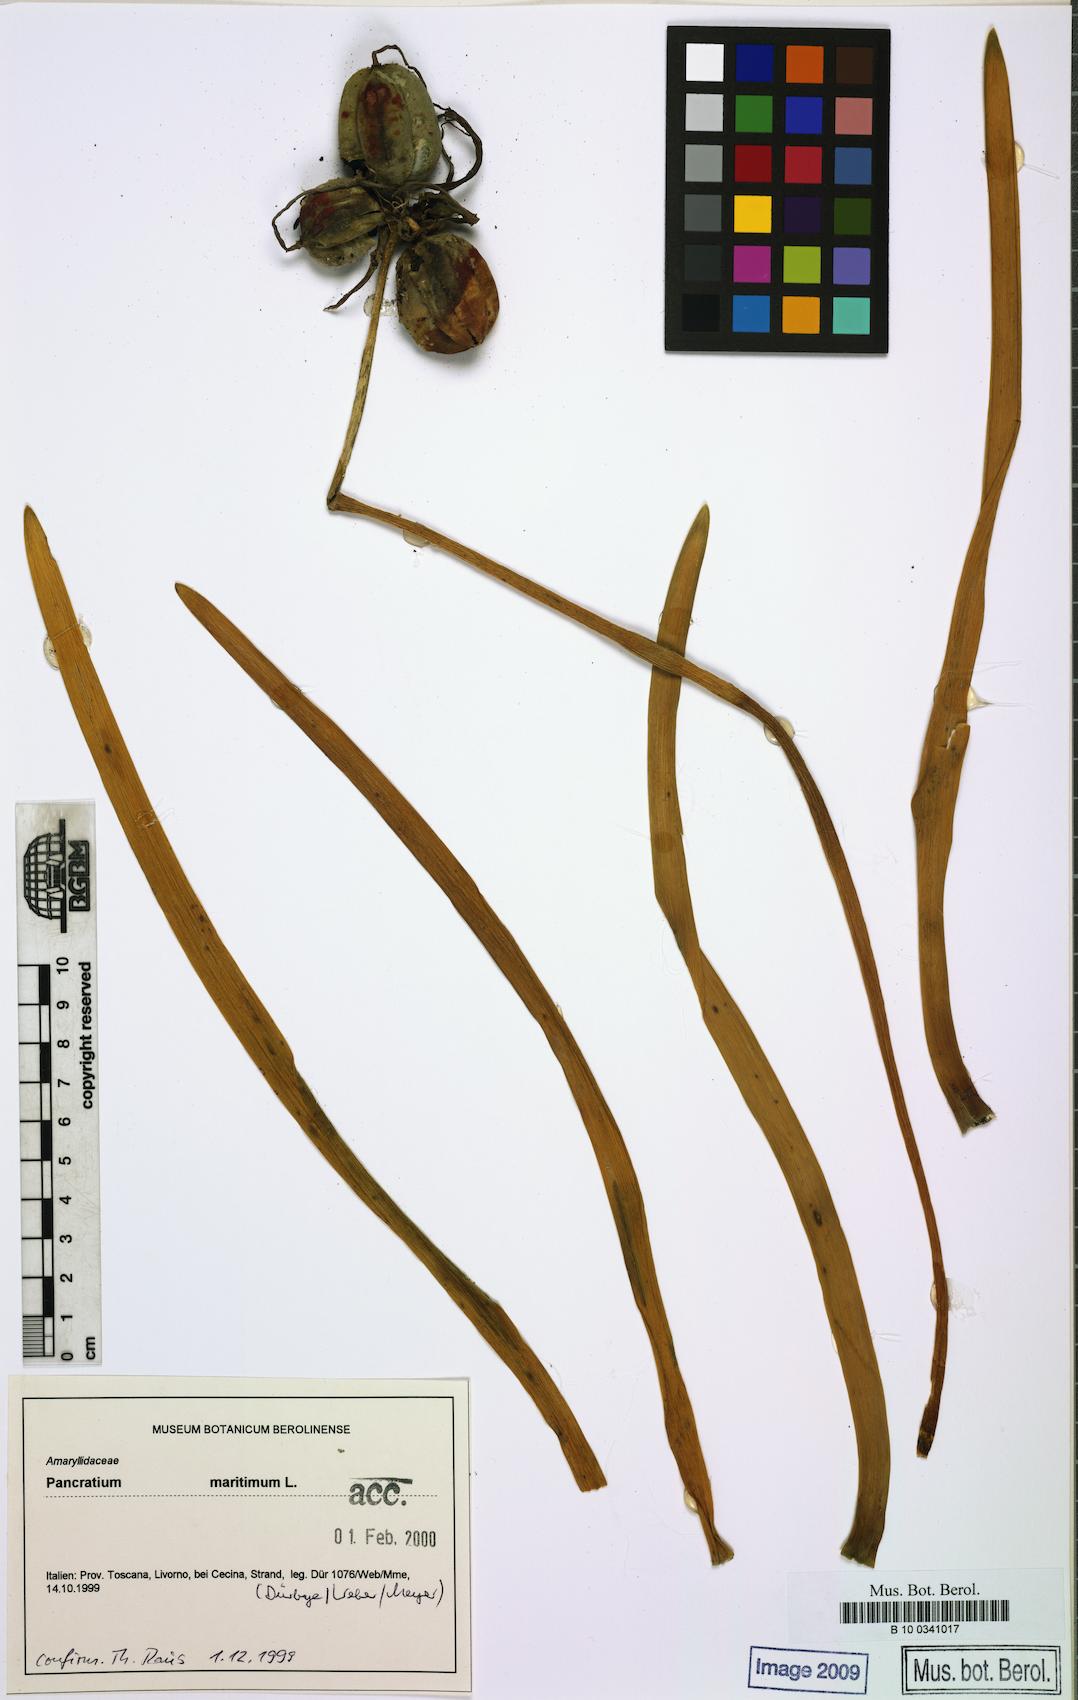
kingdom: Plantae
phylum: Tracheophyta
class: Liliopsida
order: Asparagales
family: Amaryllidaceae
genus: Pancratium
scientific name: Pancratium maritimum
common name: Sea-daffodil
